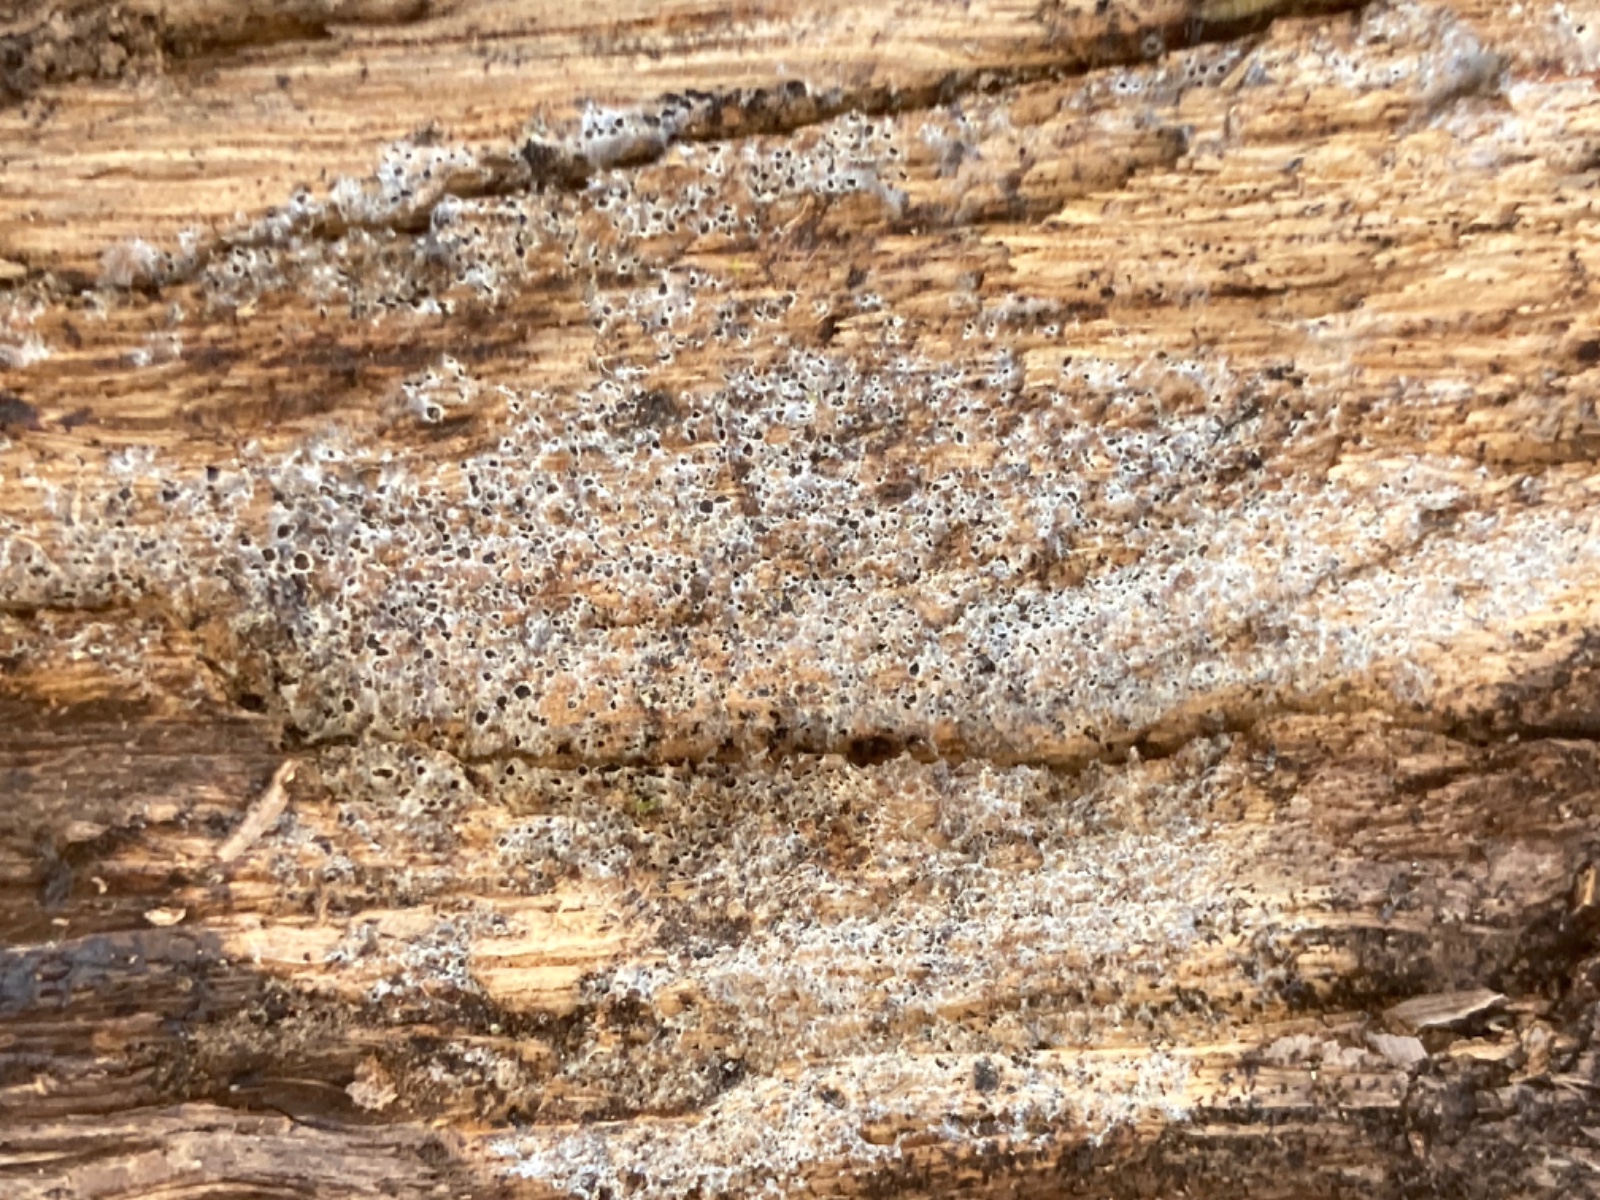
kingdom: Fungi
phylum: Ascomycota
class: Leotiomycetes
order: Helotiales
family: Arachnopezizaceae
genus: Eriopezia
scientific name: Eriopezia caesia
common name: ege-spindskive
